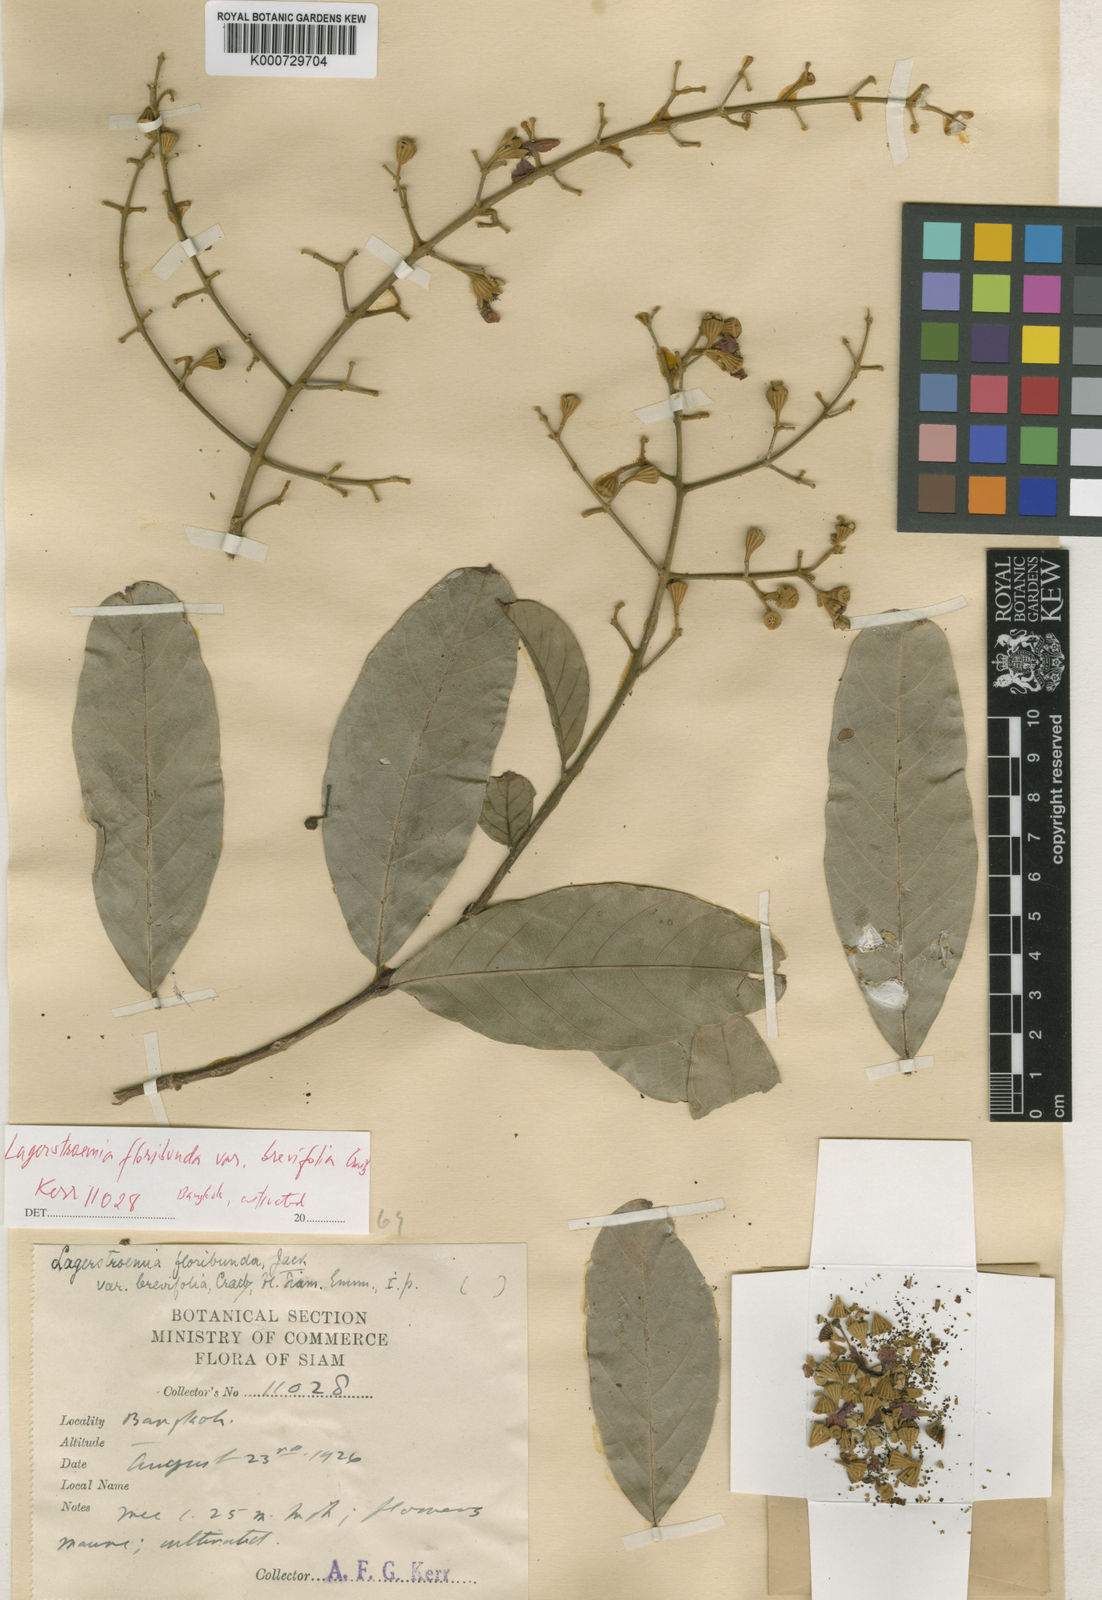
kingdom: Plantae
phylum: Tracheophyta
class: Magnoliopsida
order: Myrtales
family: Lythraceae
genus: Lagerstroemia
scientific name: Lagerstroemia floribunda
